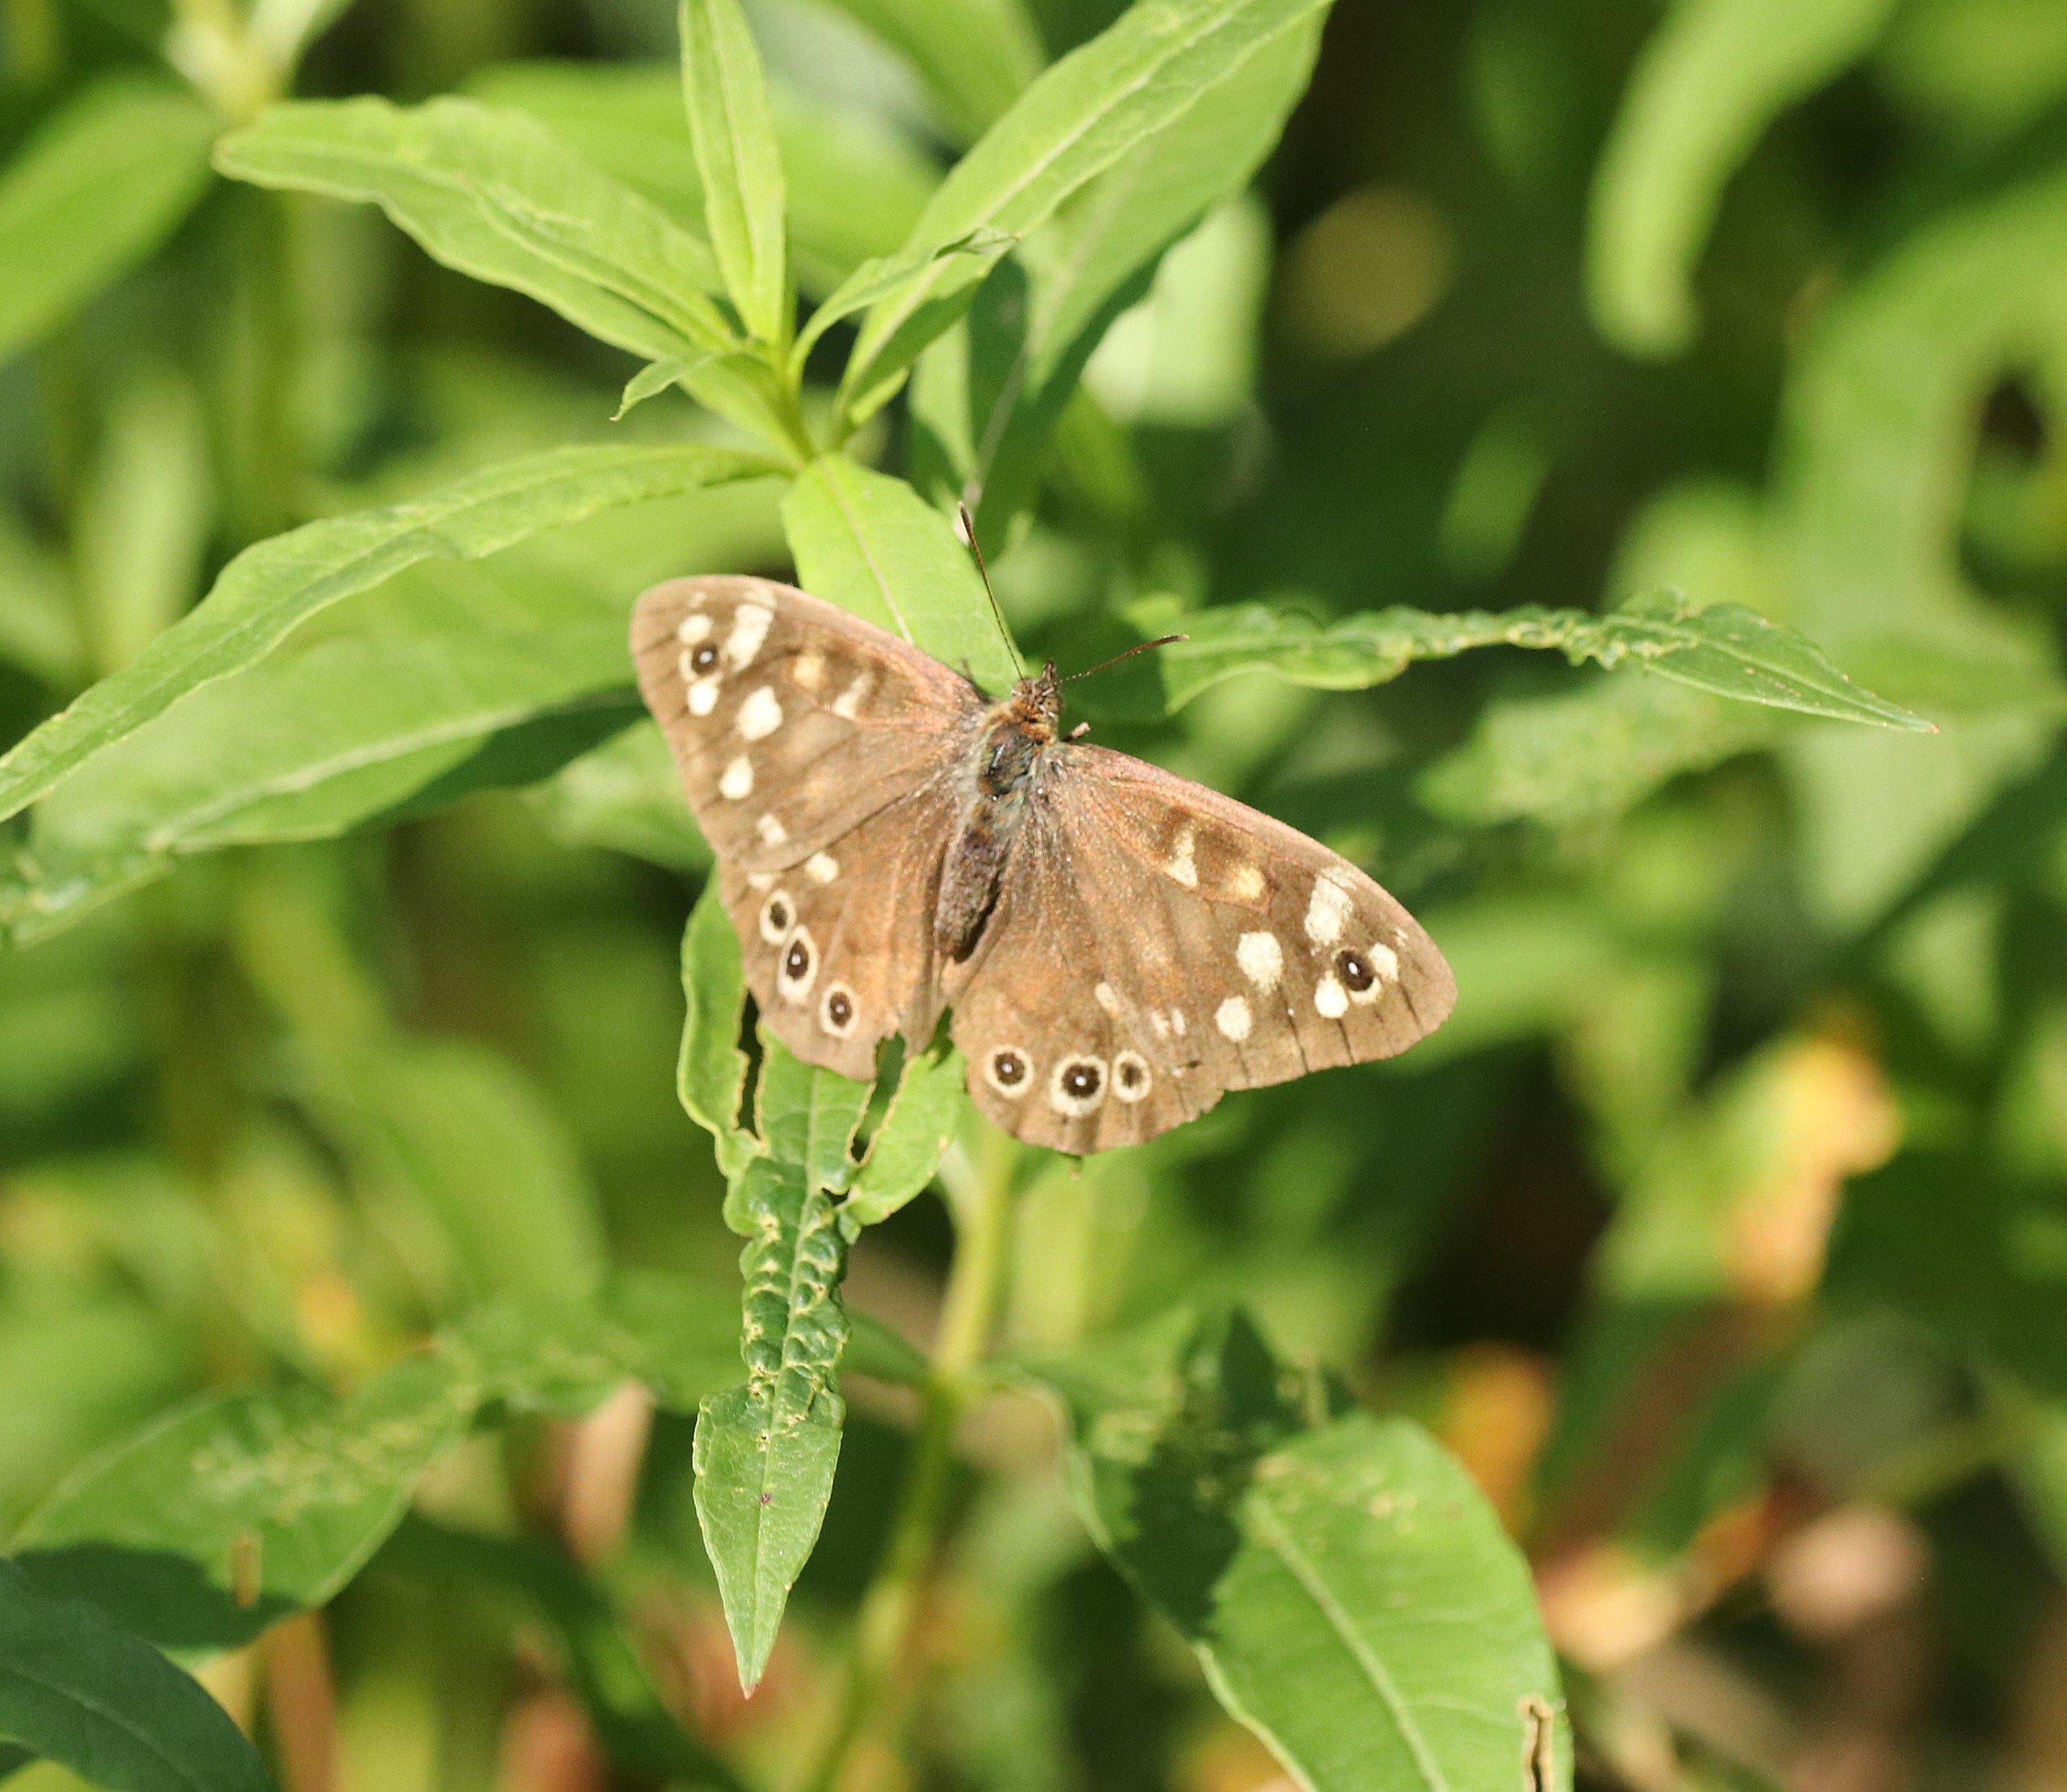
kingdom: Animalia
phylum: Arthropoda
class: Insecta
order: Lepidoptera
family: Nymphalidae
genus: Pararge
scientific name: Pararge aegeria
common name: Skovrandøje
